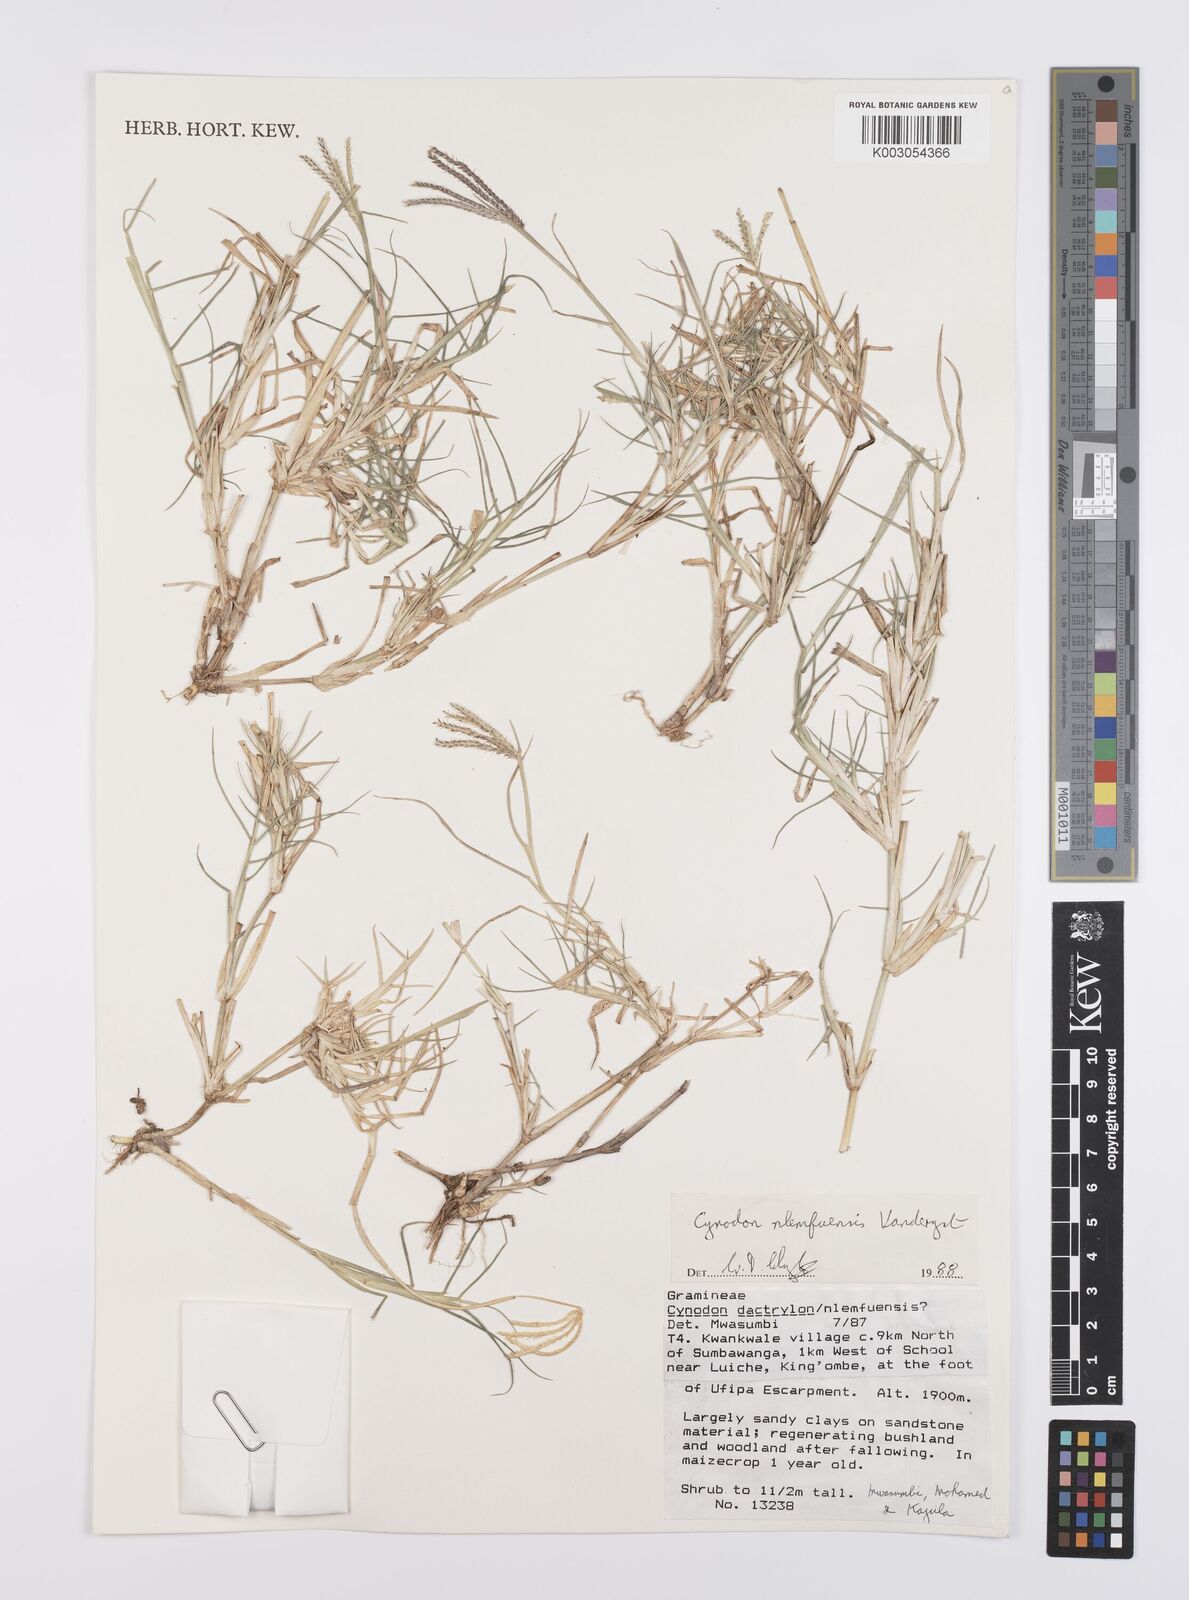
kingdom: Plantae
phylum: Tracheophyta
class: Liliopsida
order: Poales
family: Poaceae
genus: Cynodon
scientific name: Cynodon nlemfuensis
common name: African bermudagrass
